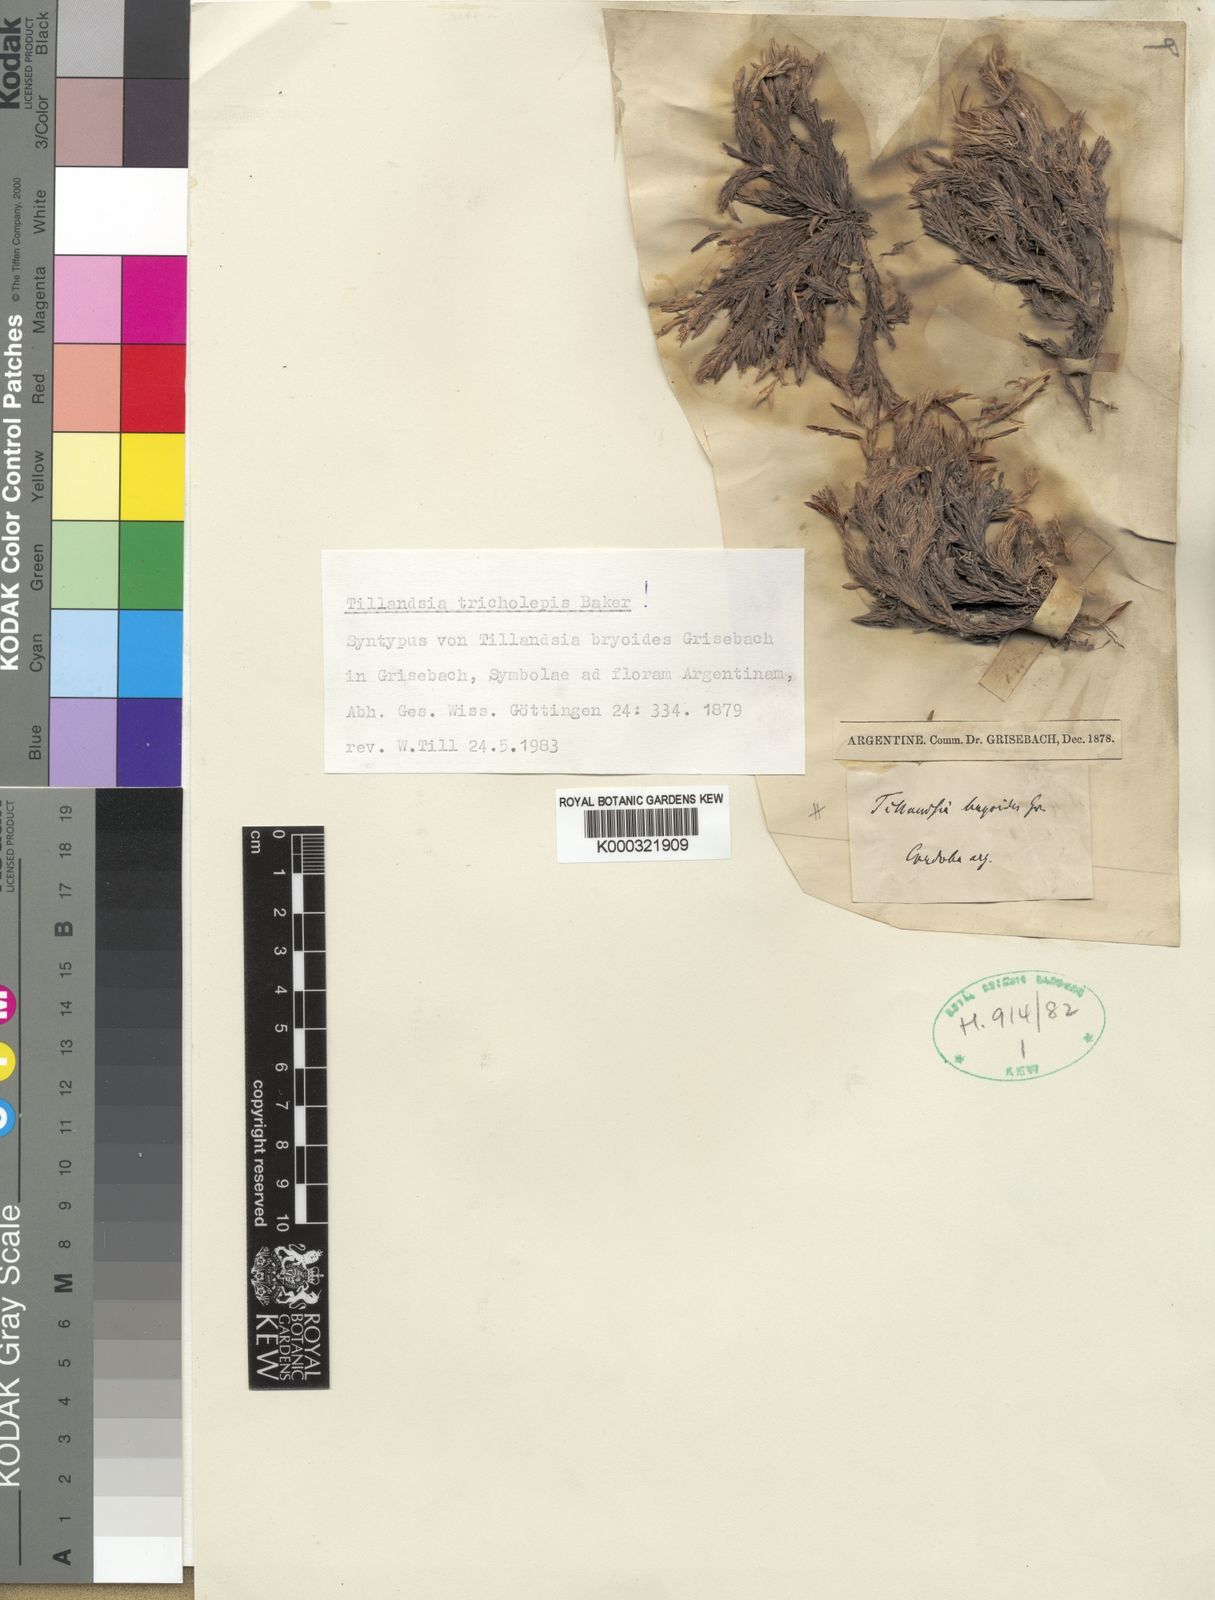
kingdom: Plantae
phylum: Tracheophyta
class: Liliopsida
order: Poales
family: Bromeliaceae
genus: Tillandsia
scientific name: Tillandsia tricholepis
